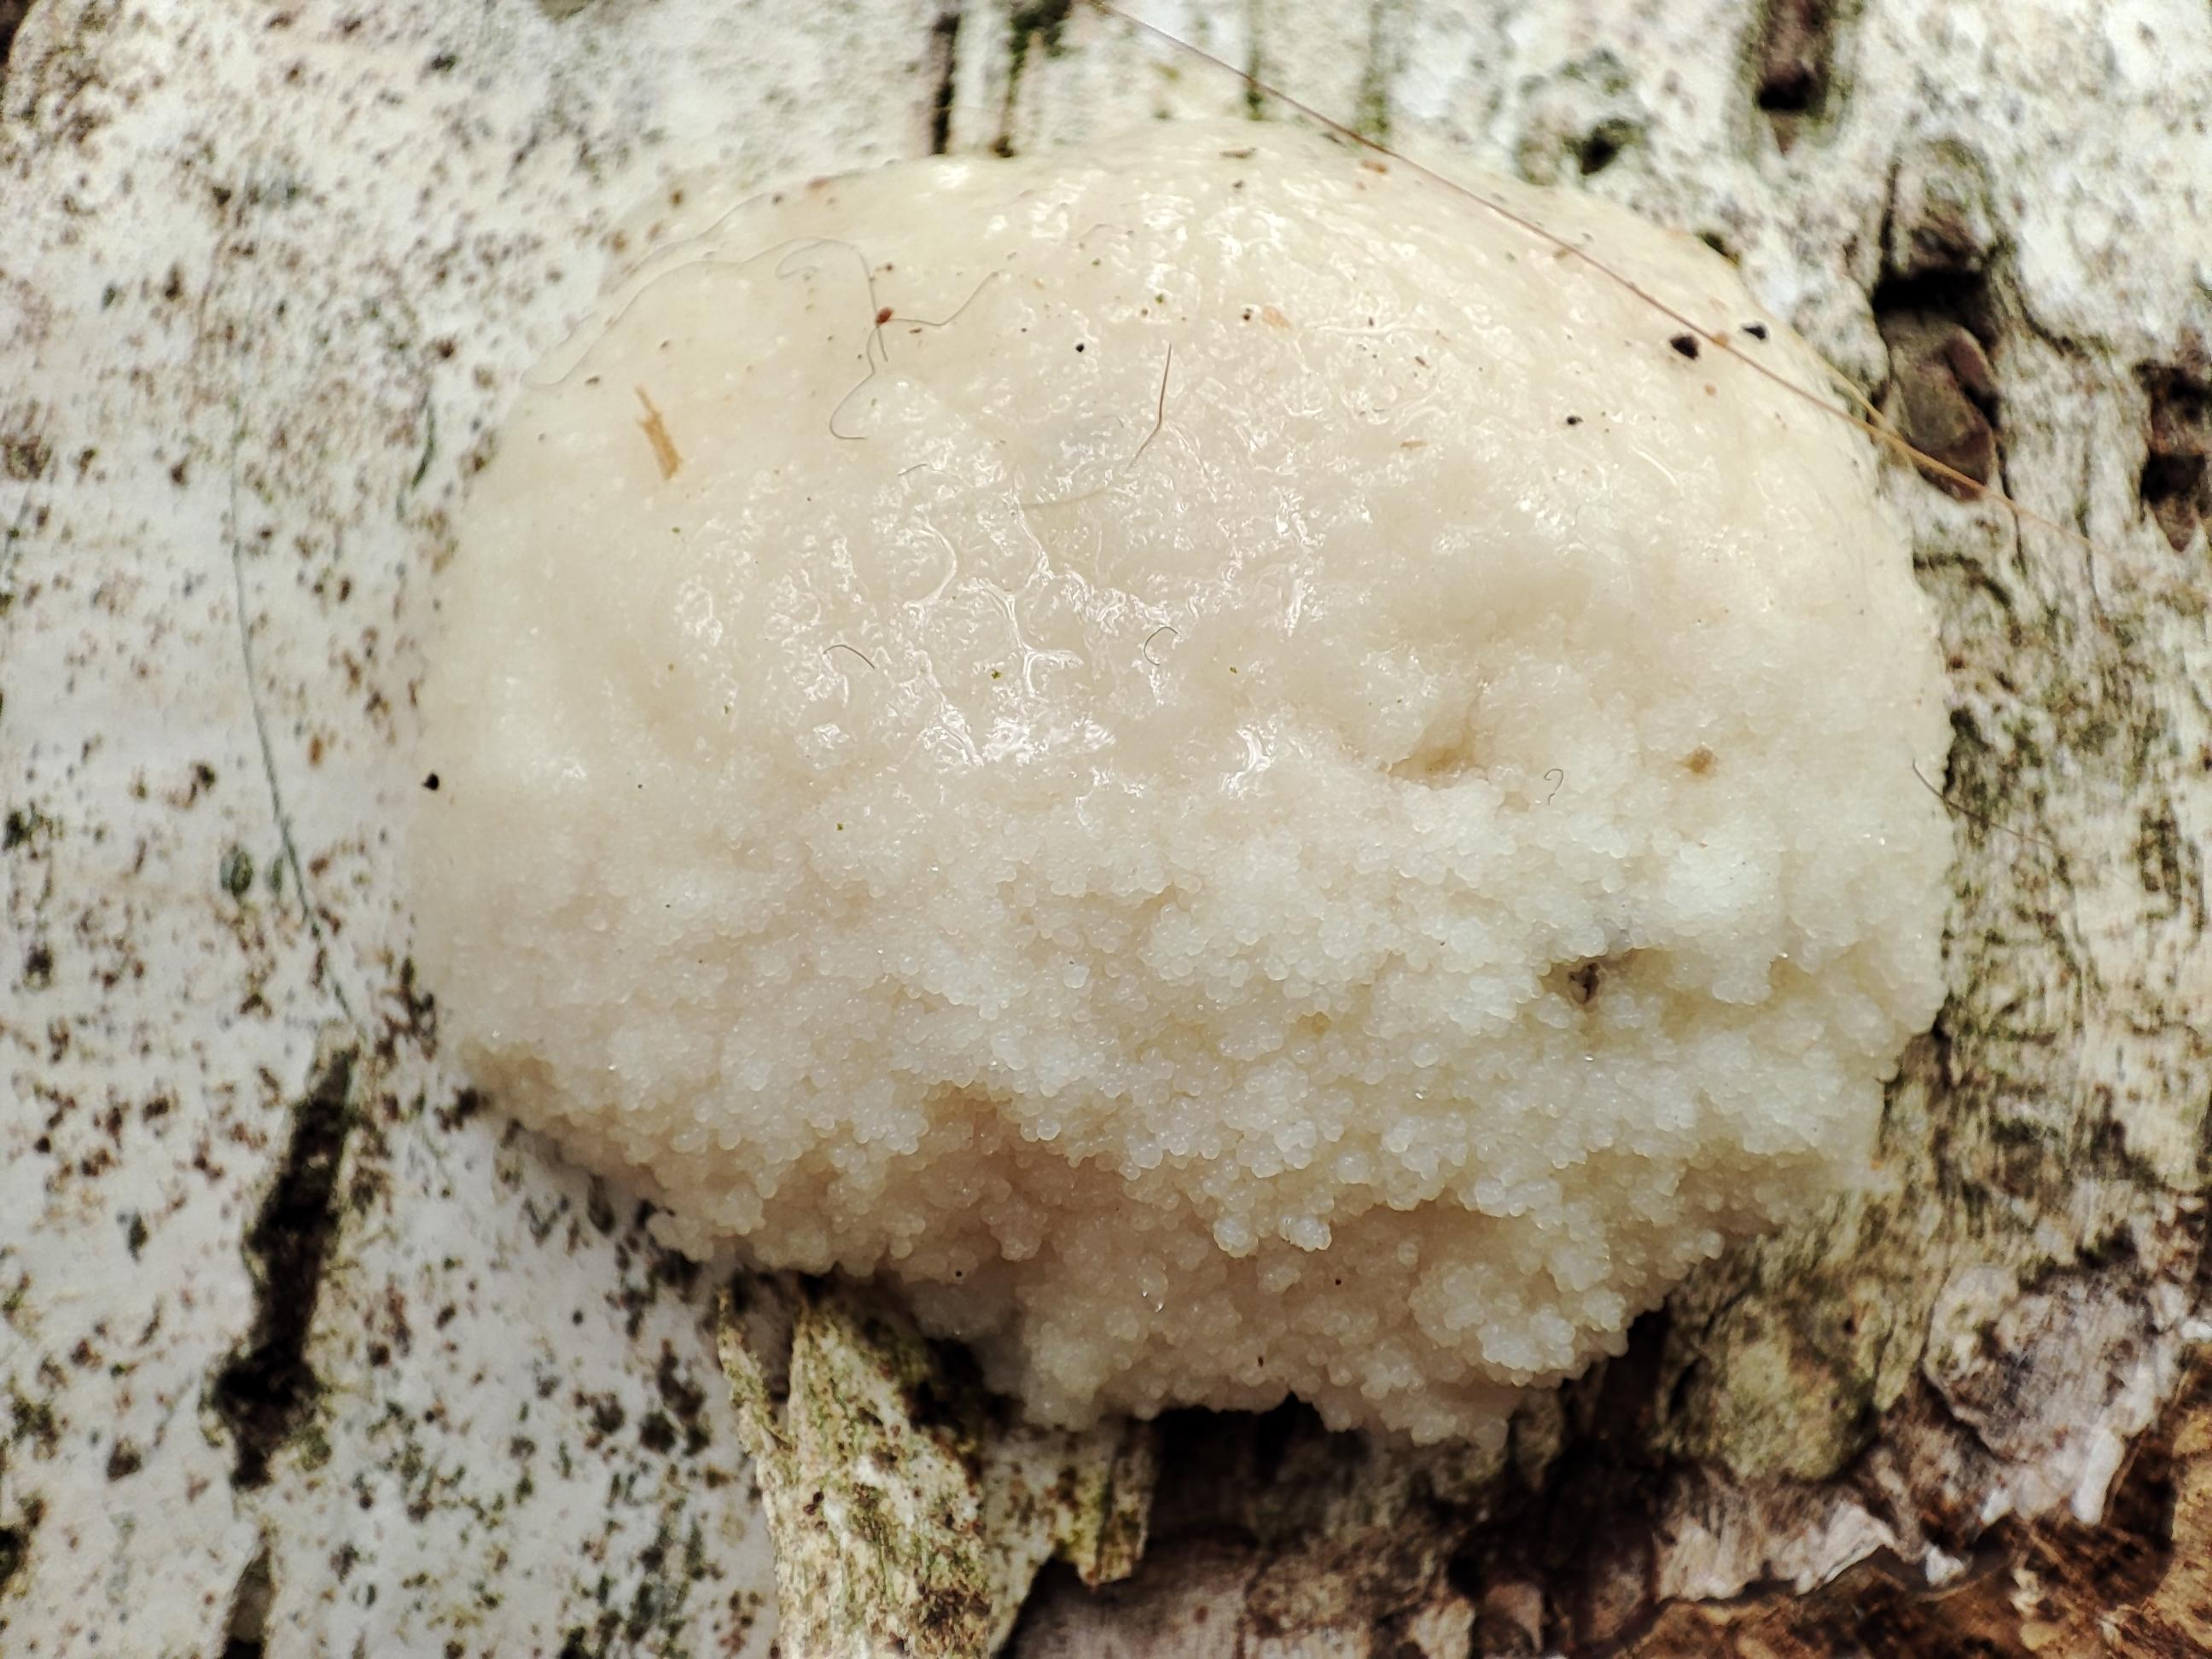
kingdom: Protozoa
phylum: Mycetozoa
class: Myxomycetes
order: Cribrariales
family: Tubiferaceae
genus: Reticularia
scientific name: Reticularia lycoperdon
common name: skinnende støvpude
